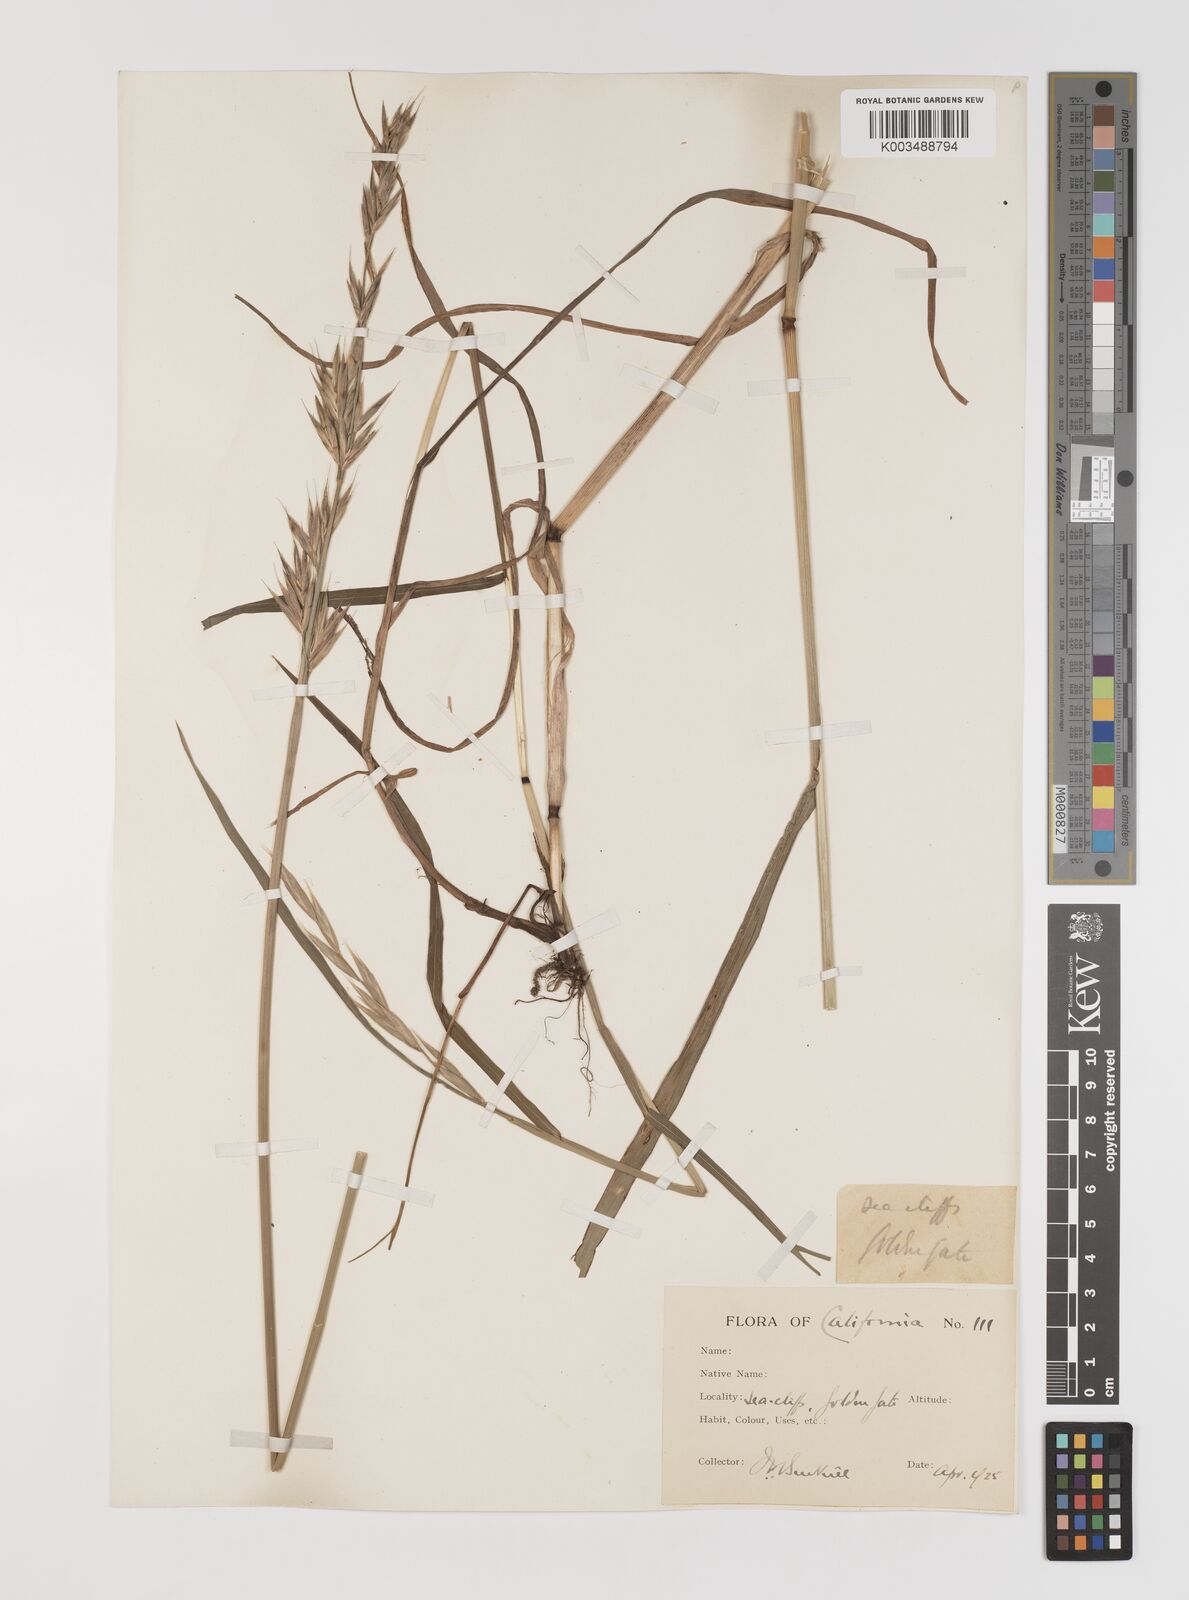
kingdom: Plantae
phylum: Tracheophyta
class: Liliopsida
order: Poales
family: Poaceae
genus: Bromus
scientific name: Bromus
